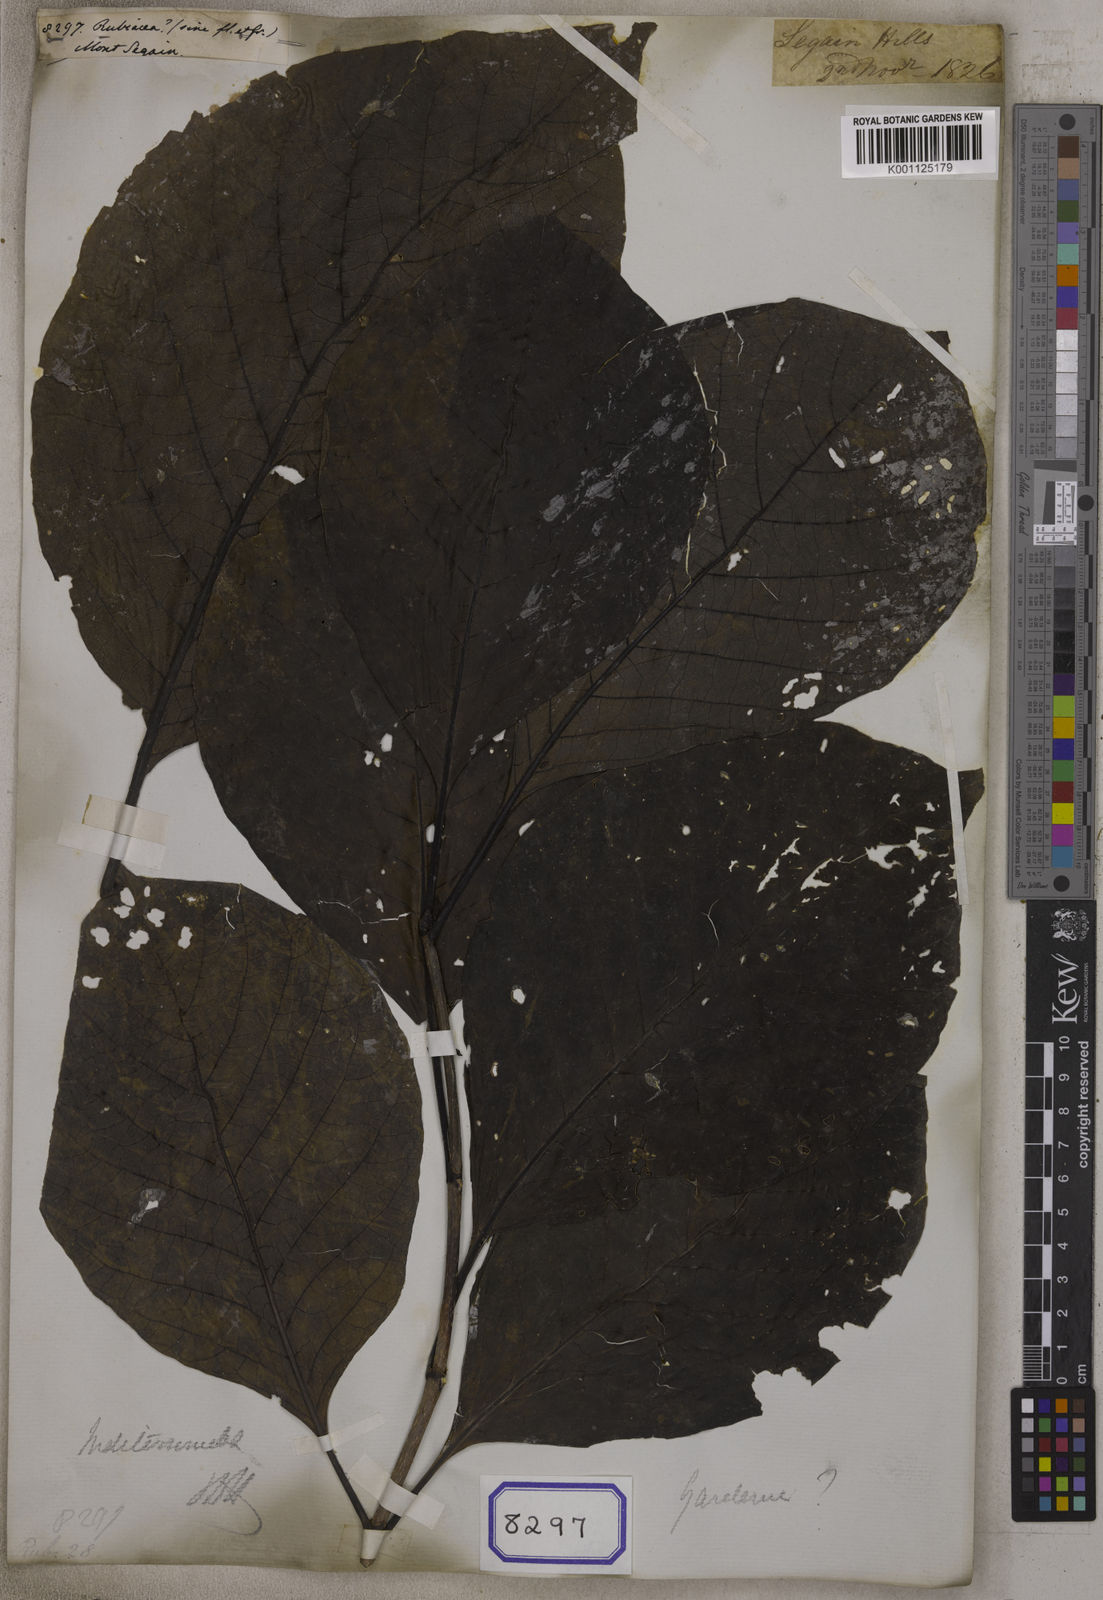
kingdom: Plantae
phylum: Tracheophyta
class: Magnoliopsida
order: Gentianales
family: Rubiaceae
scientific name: Rubiaceae
